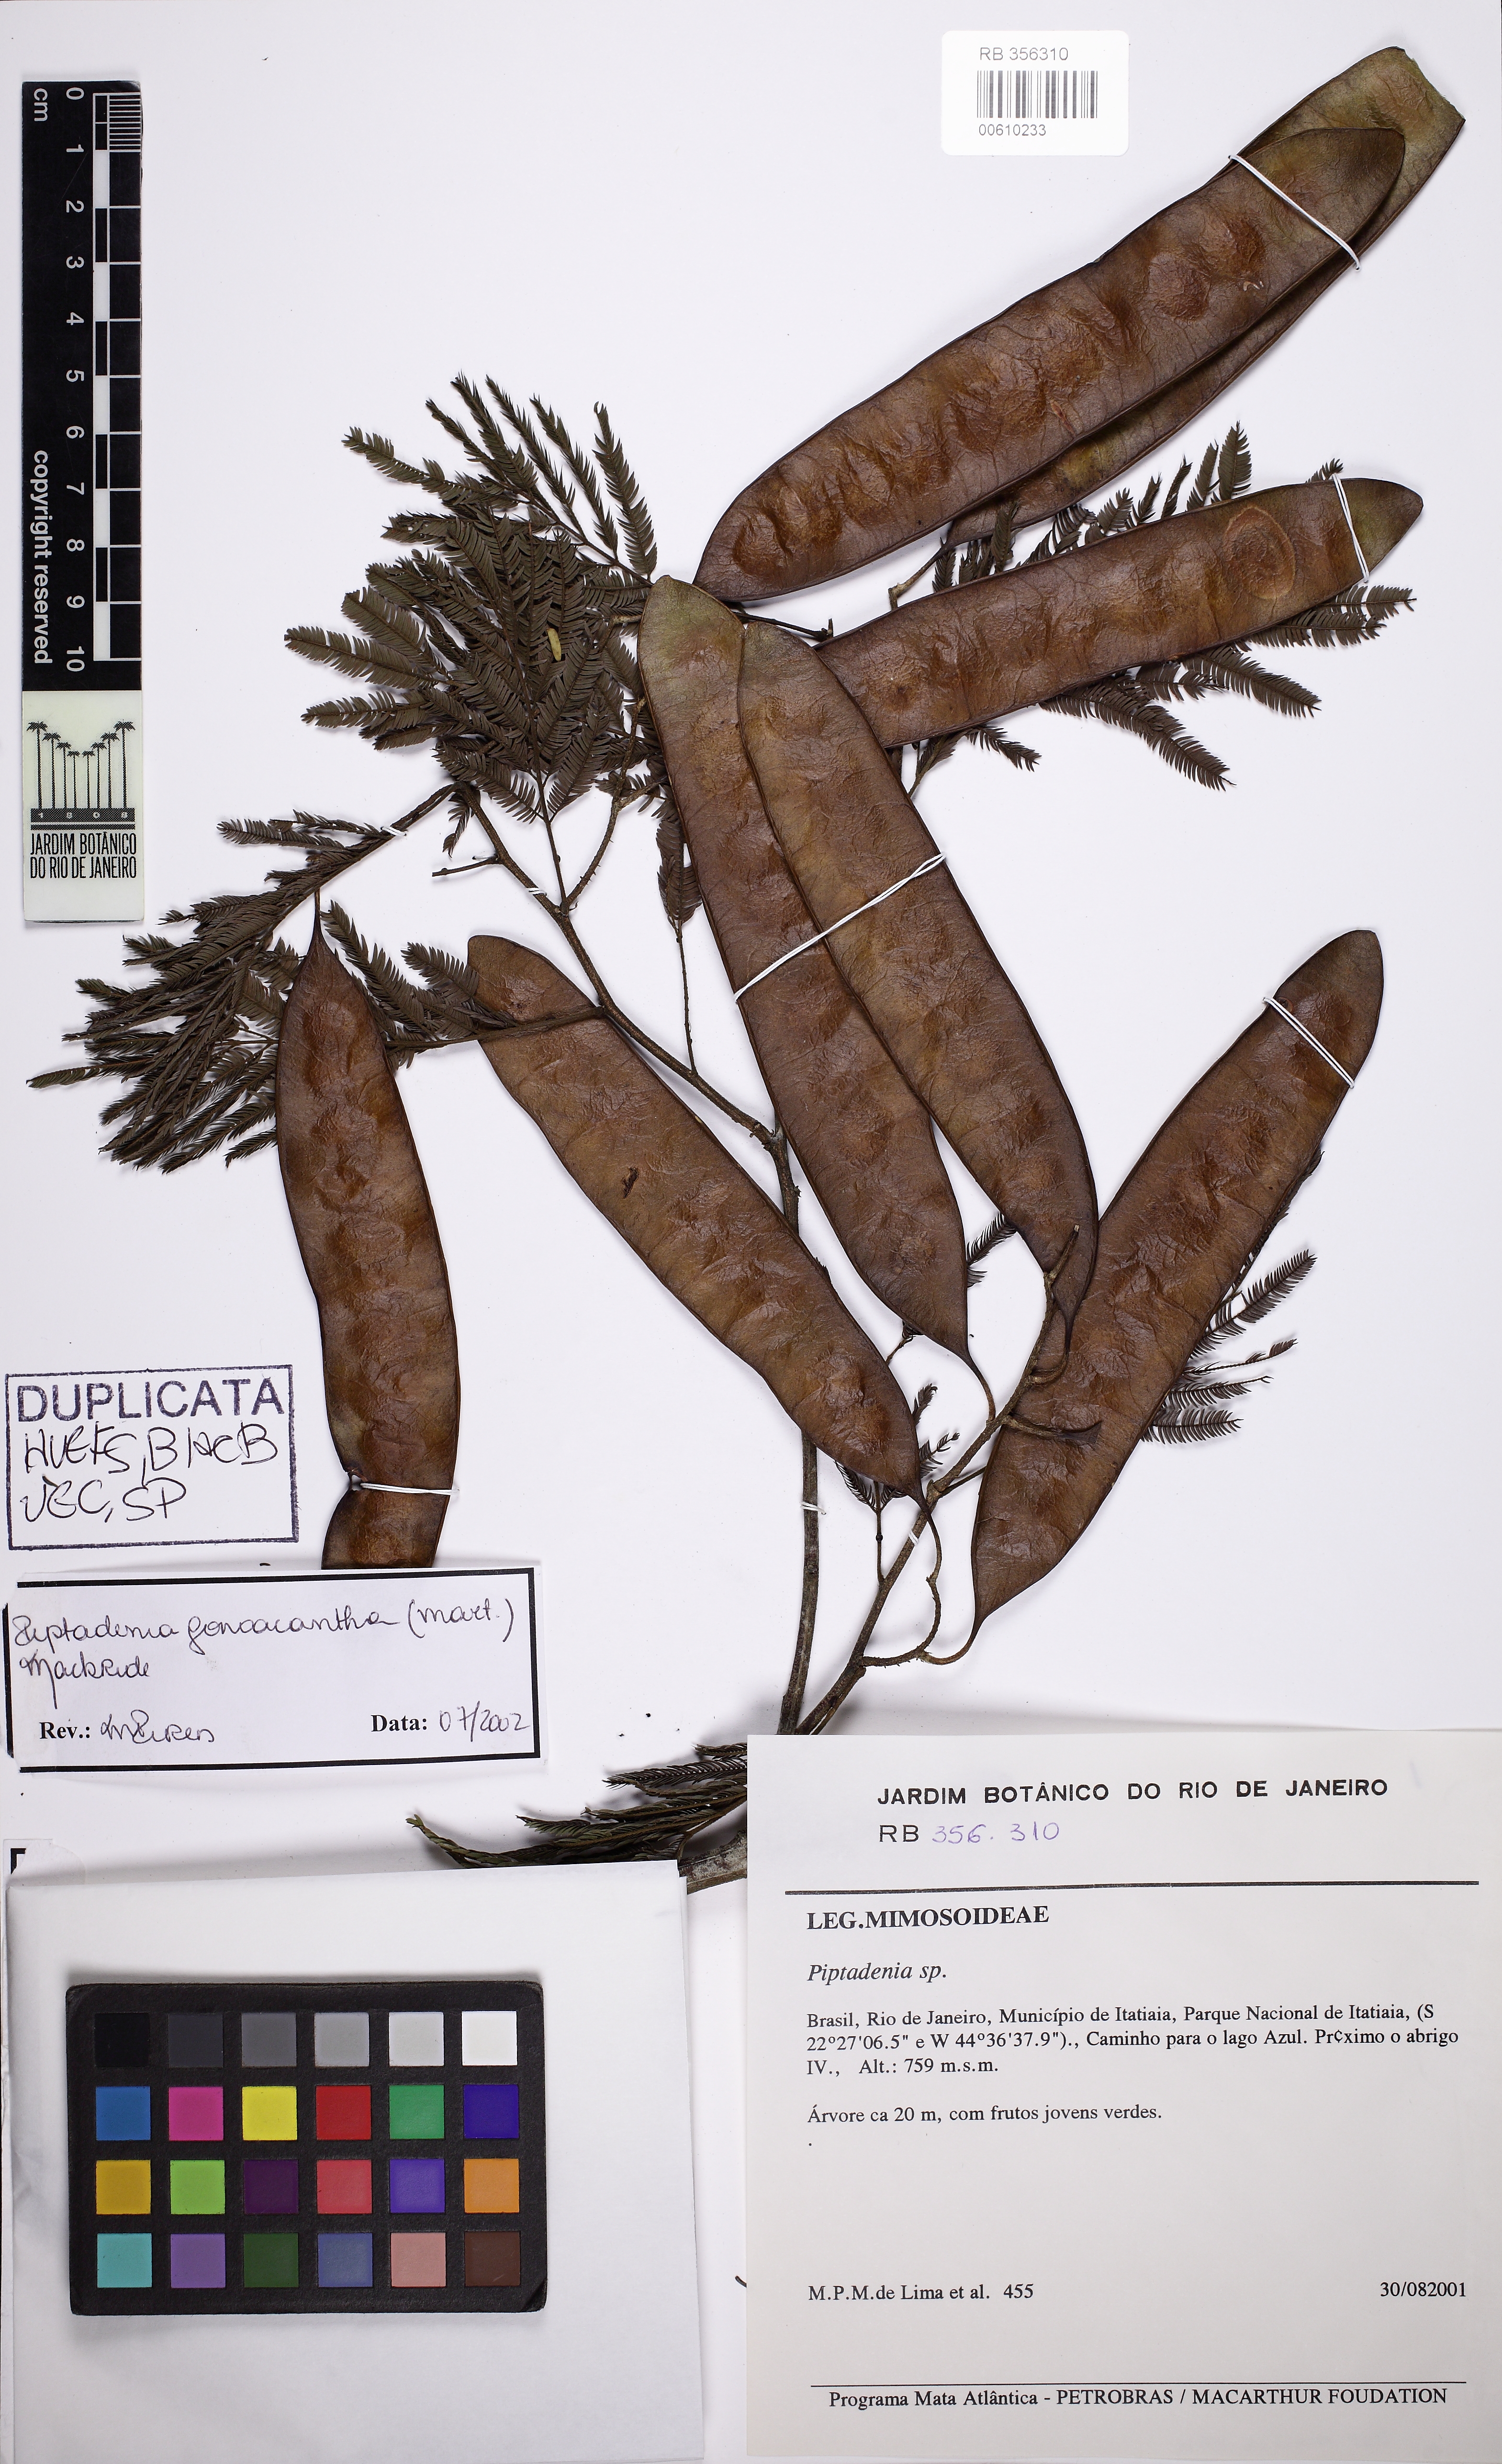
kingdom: Plantae
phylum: Tracheophyta
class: Magnoliopsida
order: Fabales
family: Fabaceae
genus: Piptadenia
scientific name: Piptadenia gonoacantha
